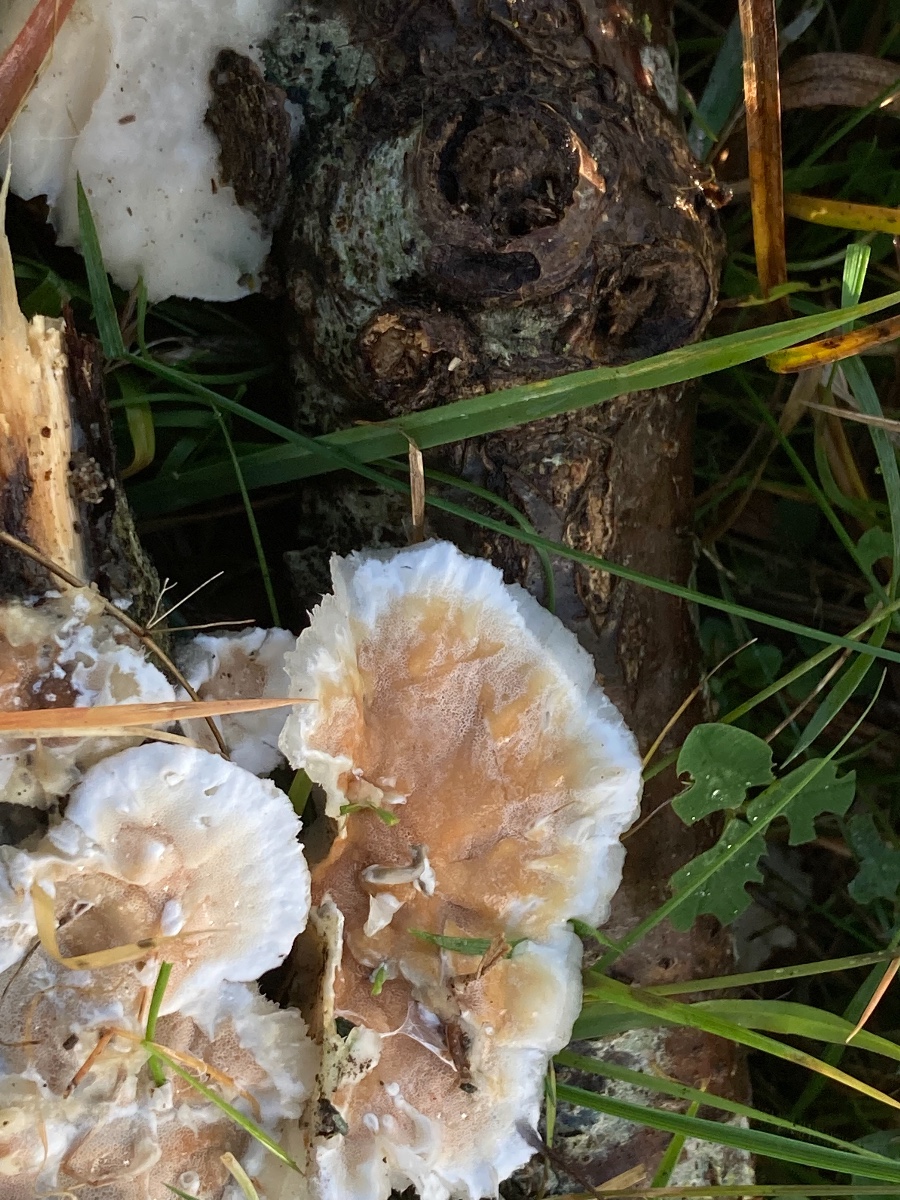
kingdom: Fungi
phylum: Basidiomycota
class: Agaricomycetes
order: Polyporales
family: Irpicaceae
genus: Vitreoporus
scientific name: Vitreoporus dichrous
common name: tofarvet foldporesvamp
